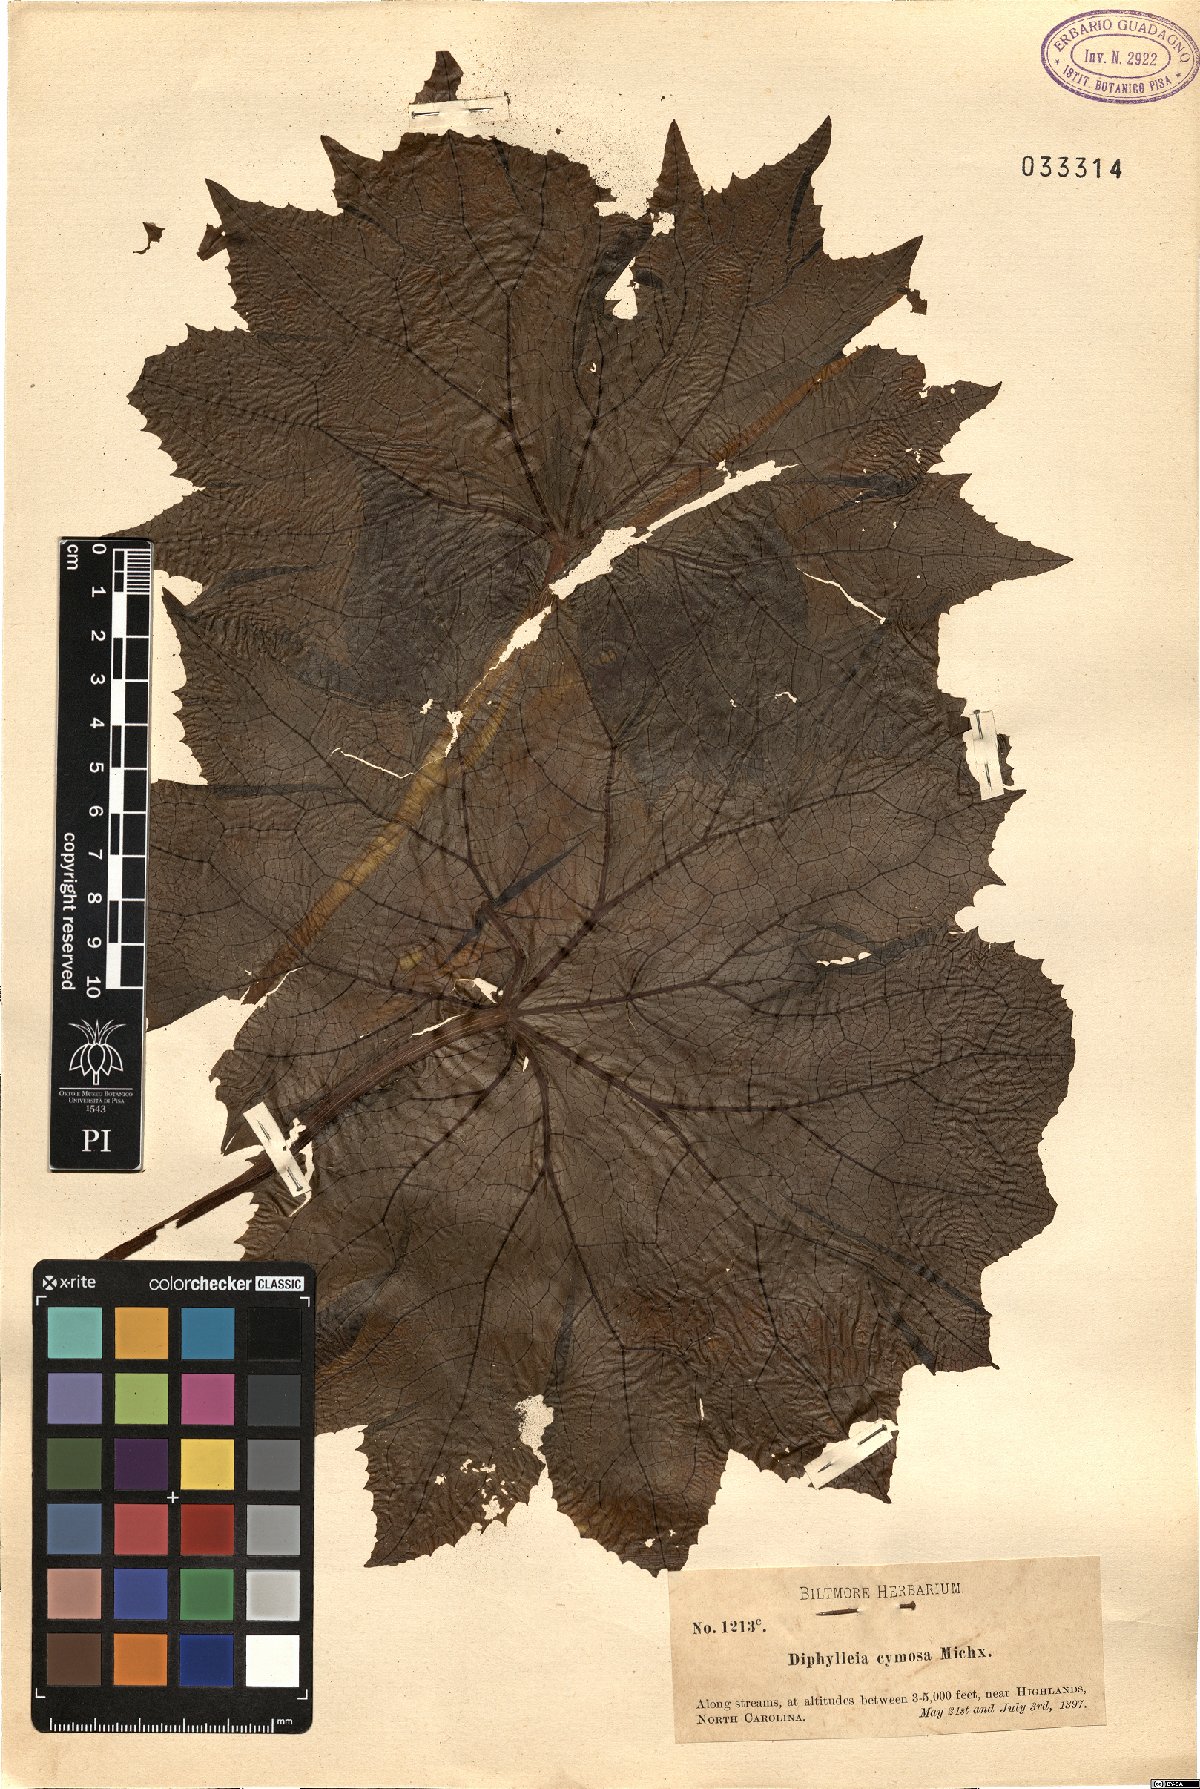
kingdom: Plantae
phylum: Tracheophyta
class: Magnoliopsida
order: Ranunculales
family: Berberidaceae
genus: Diphylleia
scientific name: Diphylleia cymosa
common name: Umbrella-leaf
